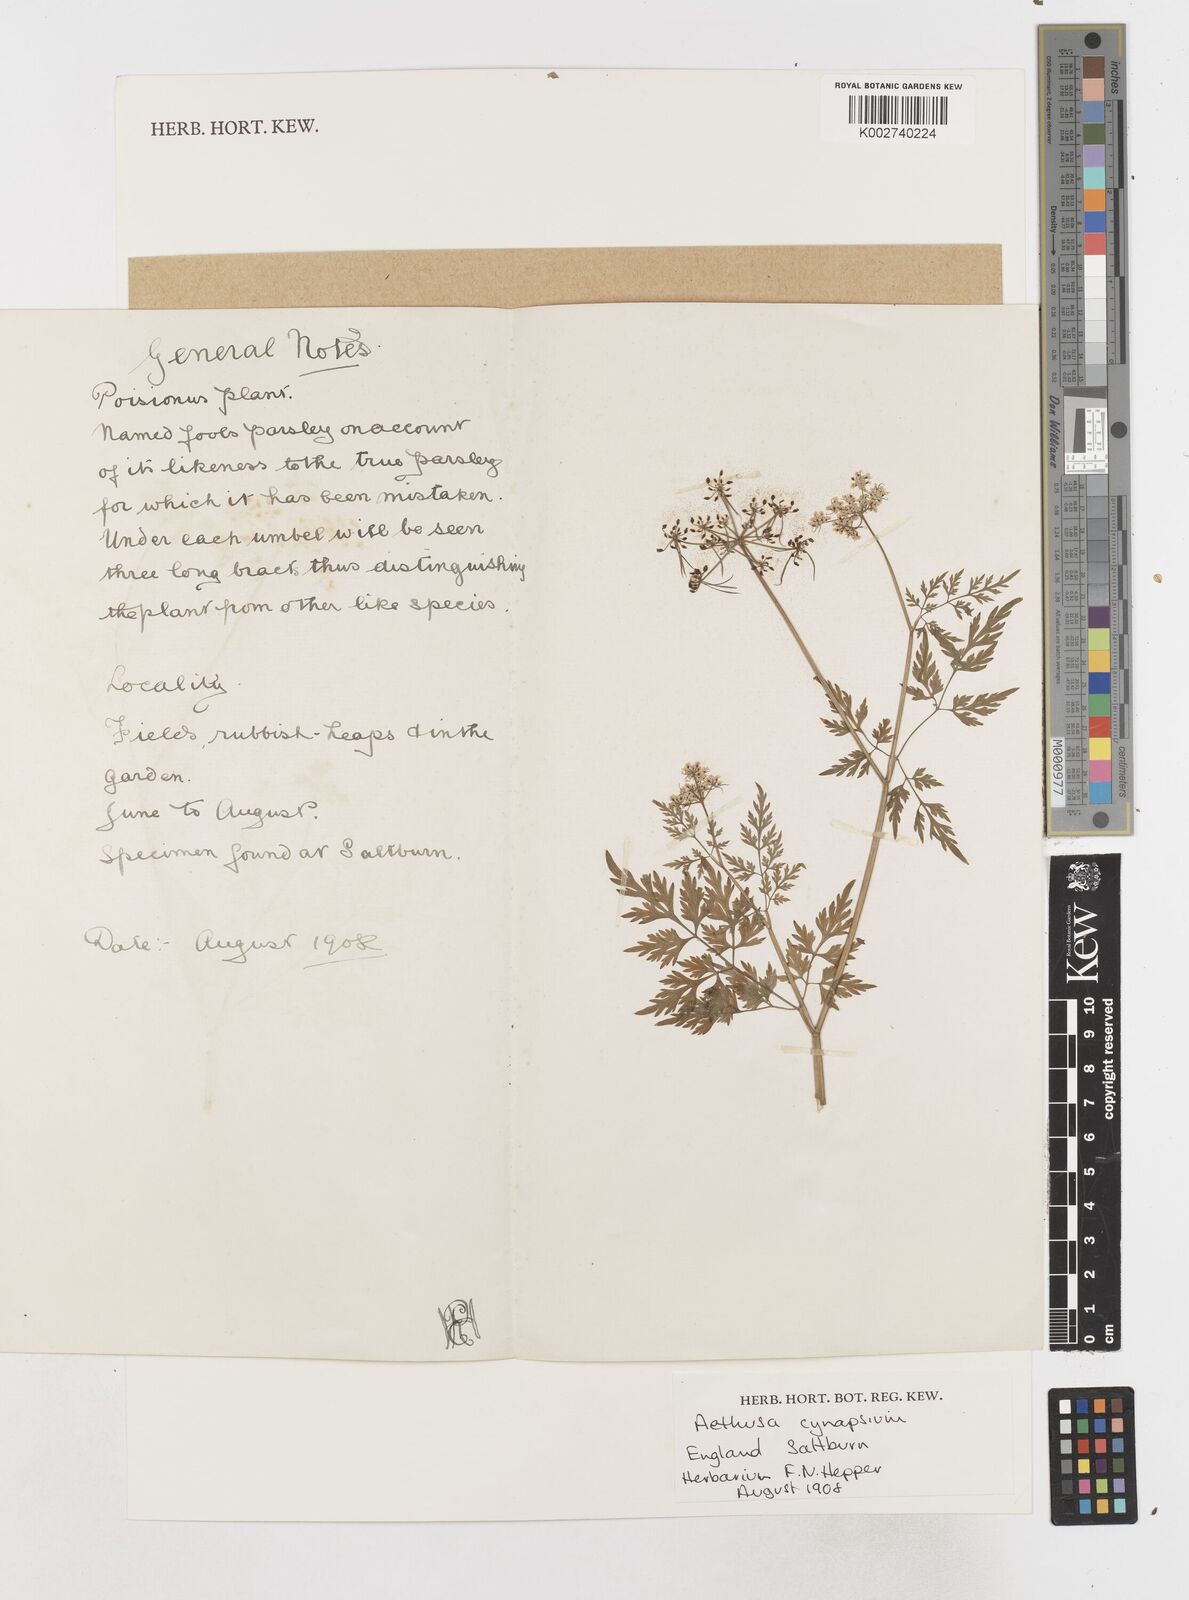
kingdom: Plantae
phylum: Tracheophyta
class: Magnoliopsida
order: Apiales
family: Apiaceae
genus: Aethusa
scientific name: Aethusa cynapium
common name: Fool's parsley
